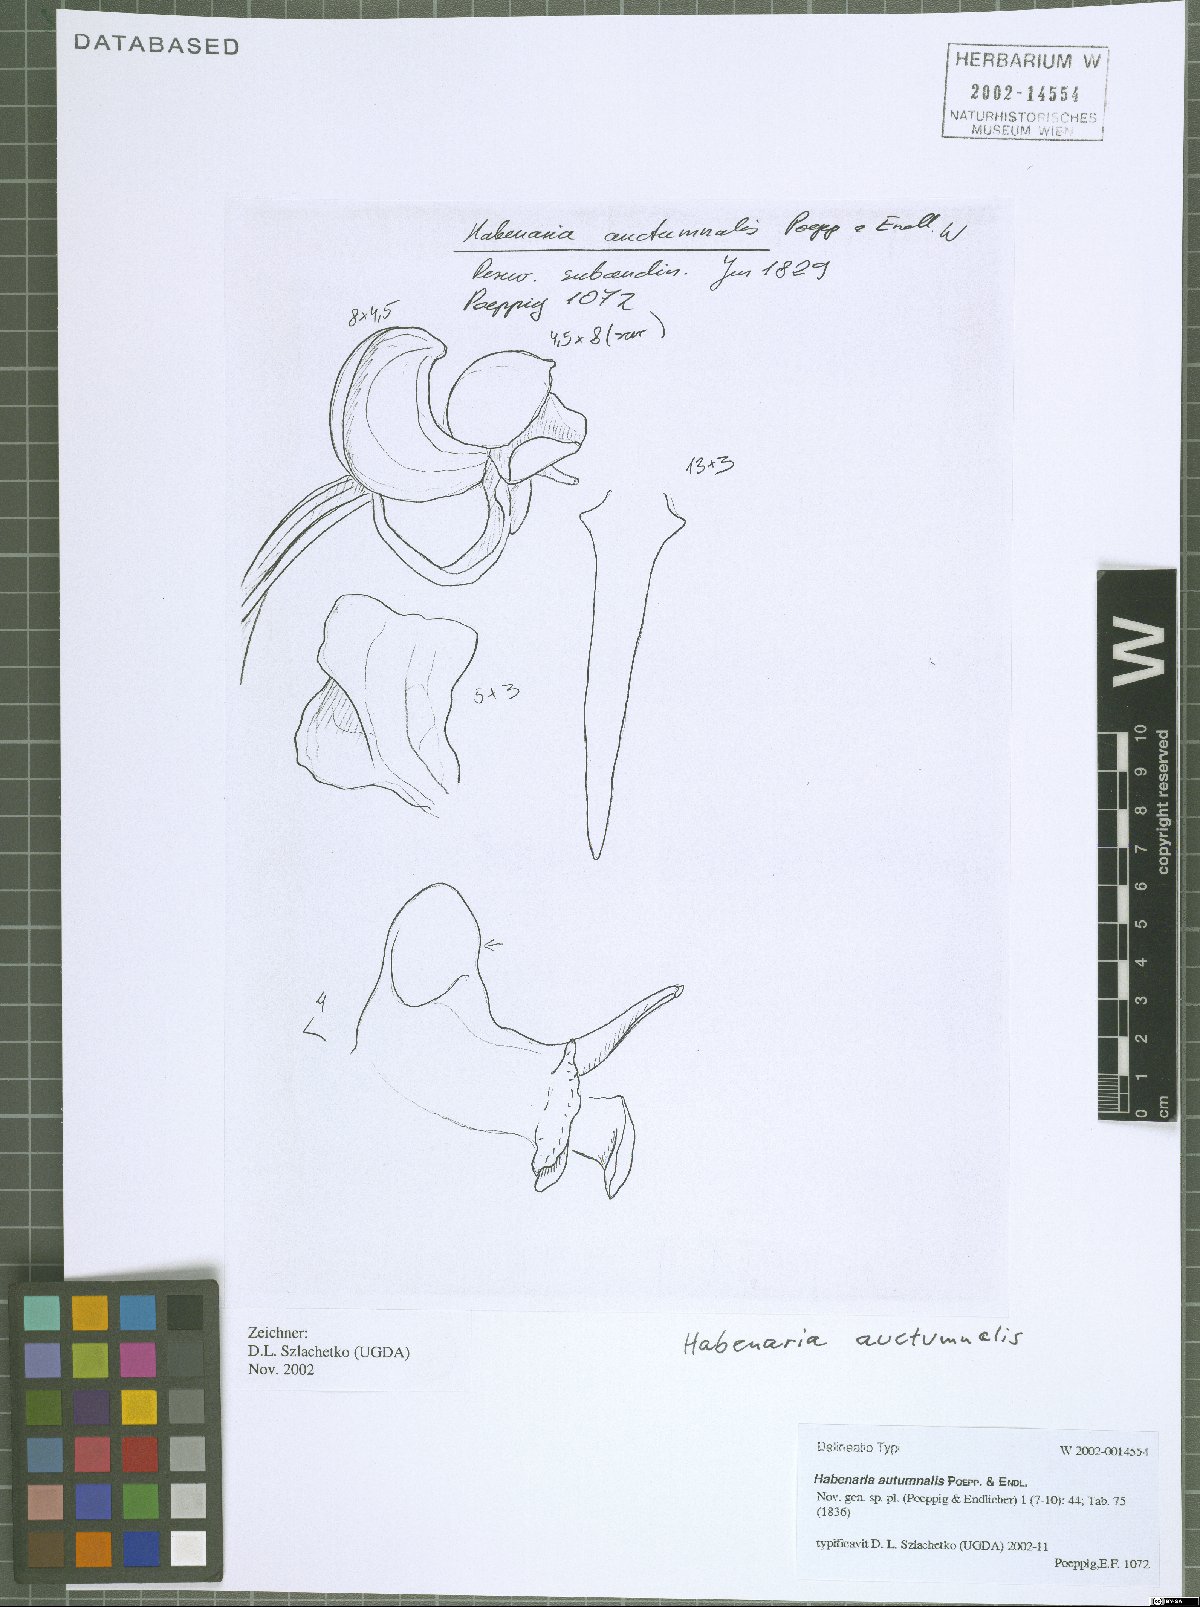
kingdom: Plantae
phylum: Tracheophyta
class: Liliopsida
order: Asparagales
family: Orchidaceae
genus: Habenaria
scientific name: Habenaria floribunda
